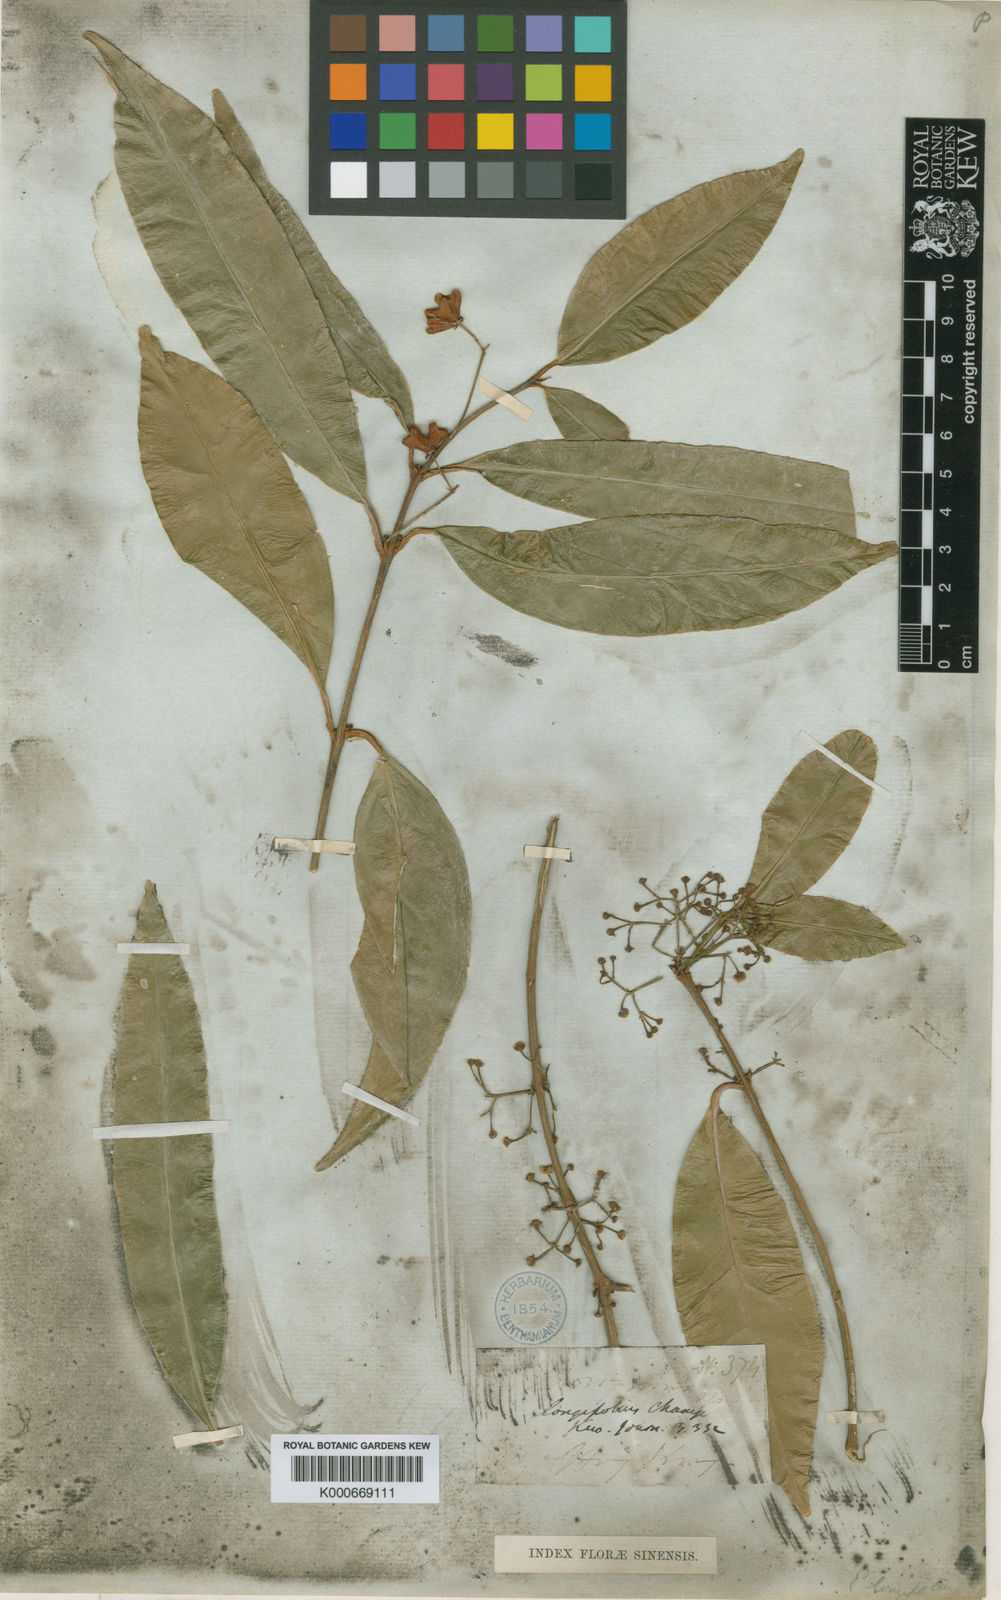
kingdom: Plantae
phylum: Tracheophyta
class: Magnoliopsida
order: Celastrales
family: Celastraceae
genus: Euonymus
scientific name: Euonymus tsoi
